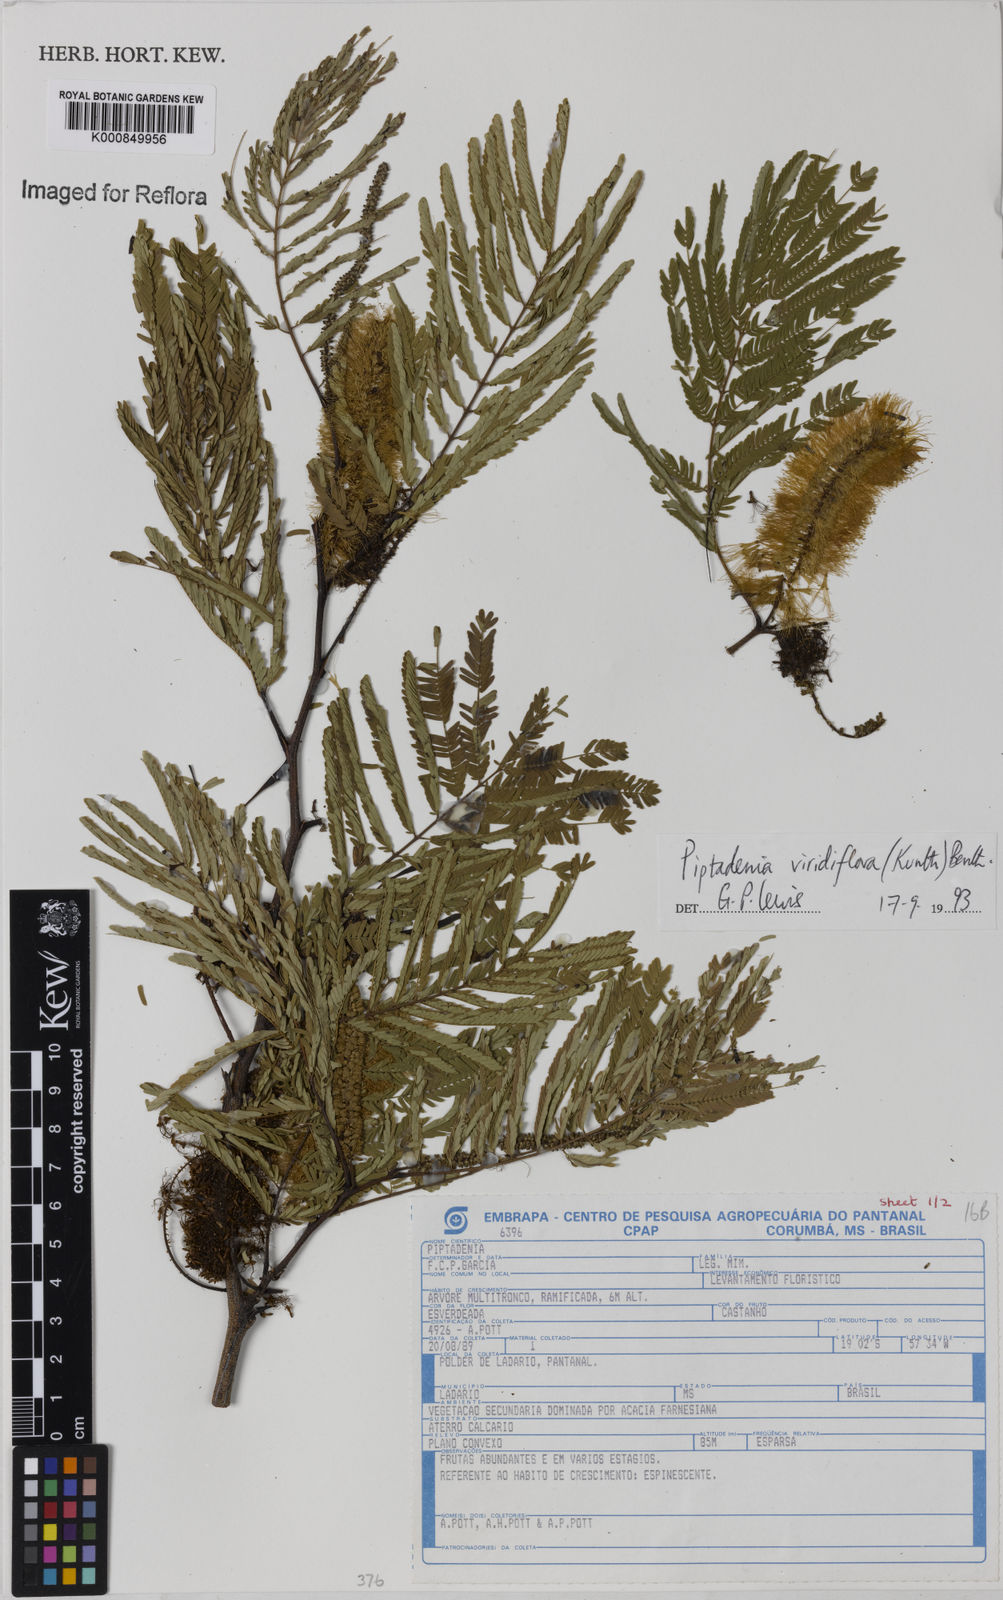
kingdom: Plantae
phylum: Tracheophyta
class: Magnoliopsida
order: Fabales
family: Fabaceae
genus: Lachesiodendron
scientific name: Lachesiodendron viridiflorum
